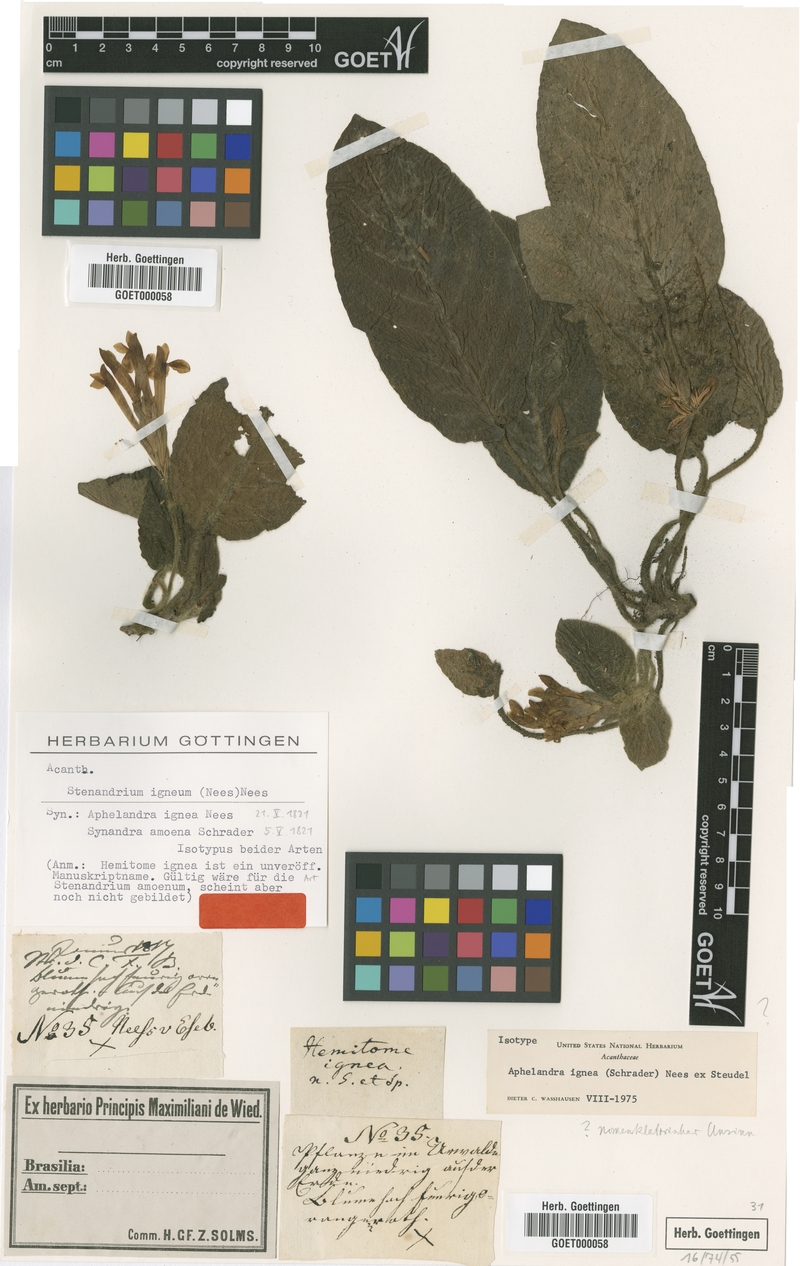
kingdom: Plantae
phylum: Tracheophyta
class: Magnoliopsida
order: Lamiales
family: Acanthaceae
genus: Aphelandra
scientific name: Aphelandra pumila
